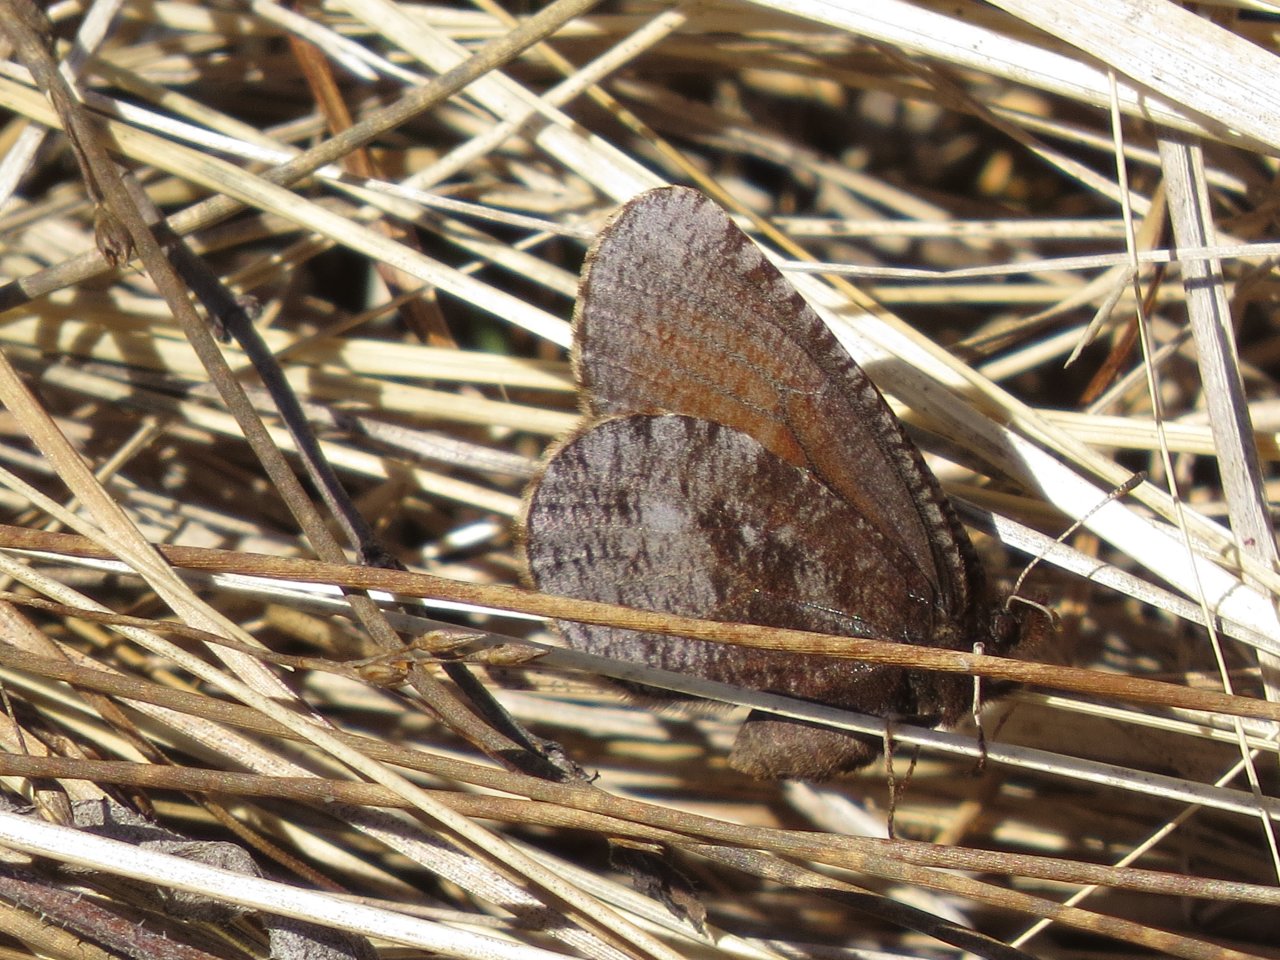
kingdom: Animalia
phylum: Arthropoda
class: Insecta
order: Lepidoptera
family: Nymphalidae
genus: Erebia
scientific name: Erebia discoidalis
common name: Red-disked Alpine
